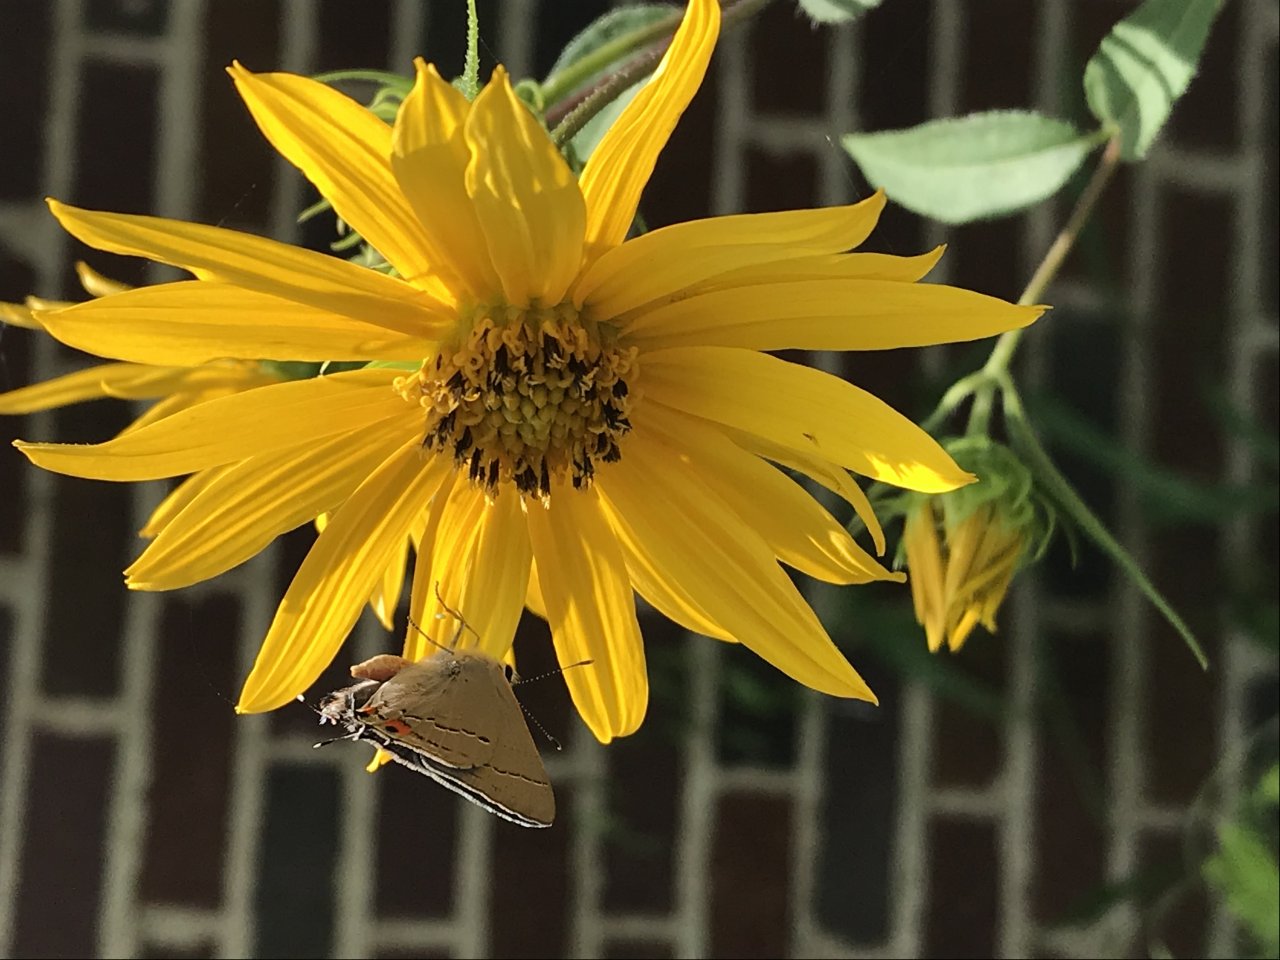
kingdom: Animalia
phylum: Arthropoda
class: Insecta
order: Lepidoptera
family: Lycaenidae
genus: Strymon
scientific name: Strymon melinus
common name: Gray Hairstreak
